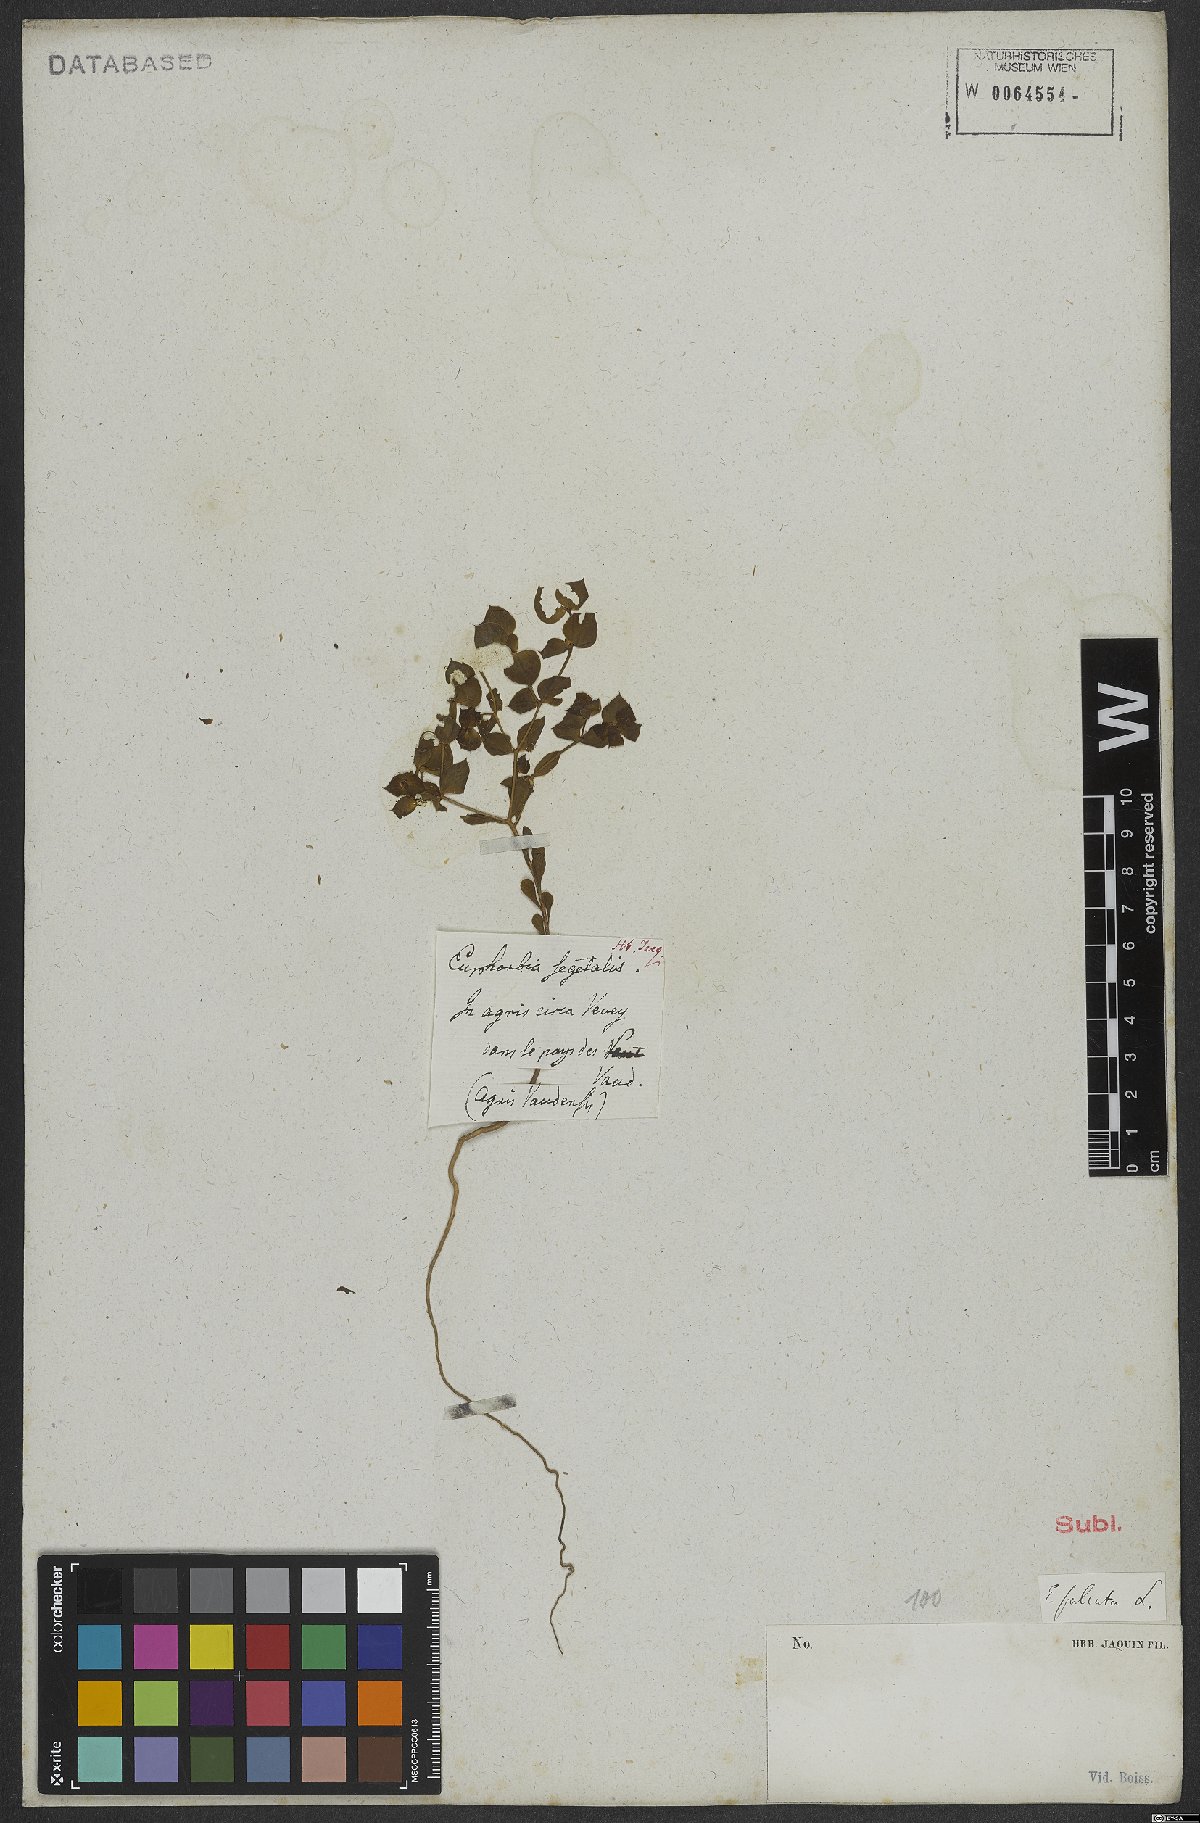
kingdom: Plantae
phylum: Tracheophyta
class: Magnoliopsida
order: Malpighiales
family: Euphorbiaceae
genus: Euphorbia
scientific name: Euphorbia falcata
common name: Sickle spurge
